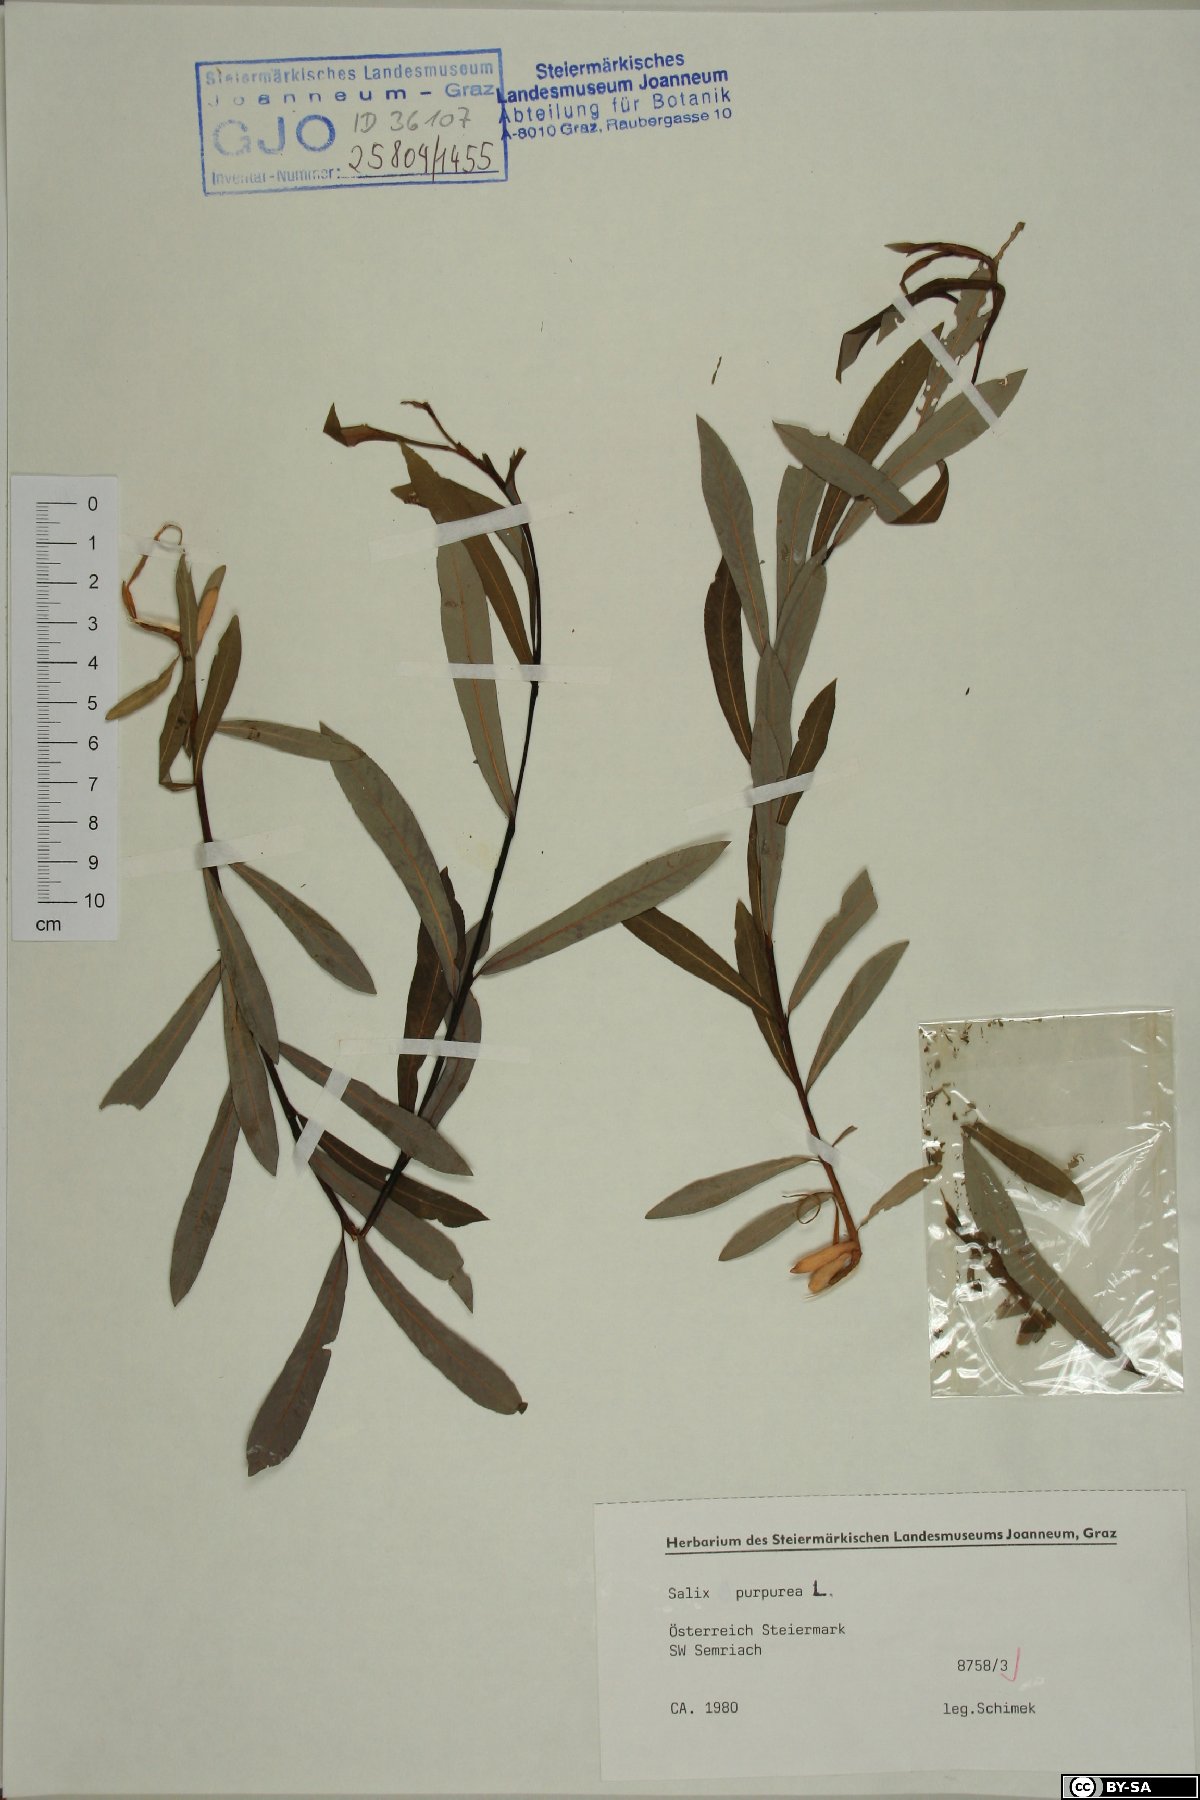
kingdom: Plantae
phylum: Tracheophyta
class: Magnoliopsida
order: Malpighiales
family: Salicaceae
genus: Salix
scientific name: Salix purpurea
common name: Purple willow
